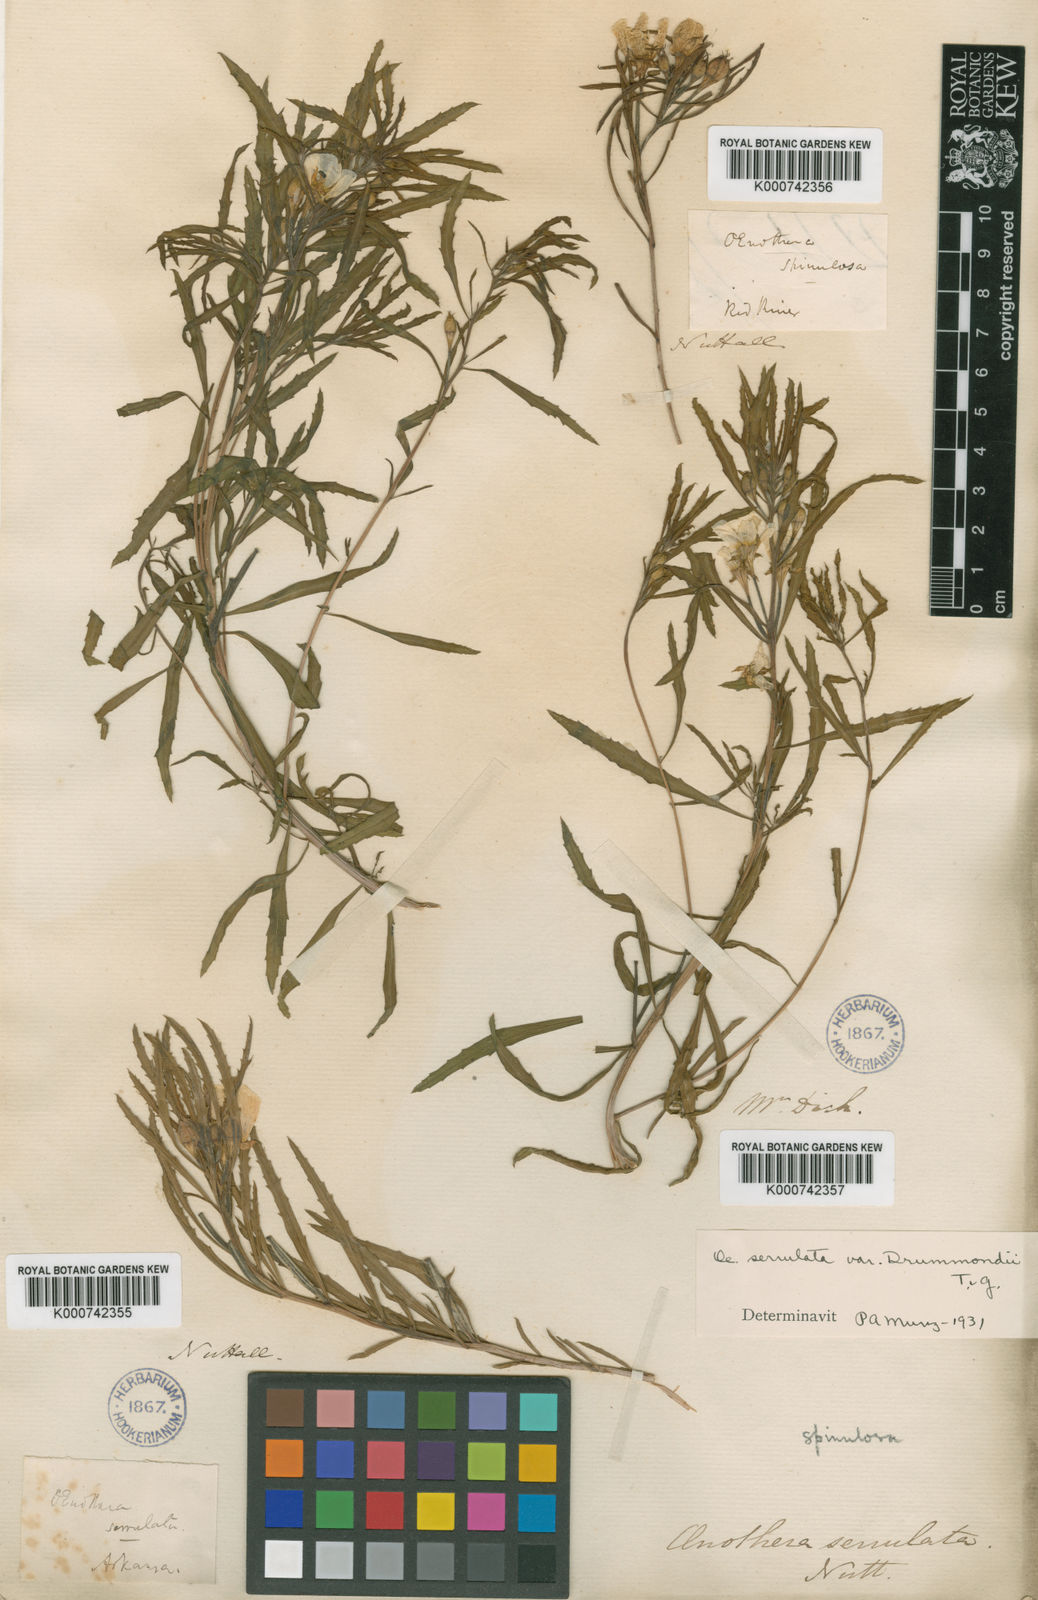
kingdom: Plantae
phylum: Tracheophyta
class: Magnoliopsida
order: Myrtales
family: Onagraceae
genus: Oenothera
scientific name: Oenothera serrulata
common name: Half-shrub calylophus
